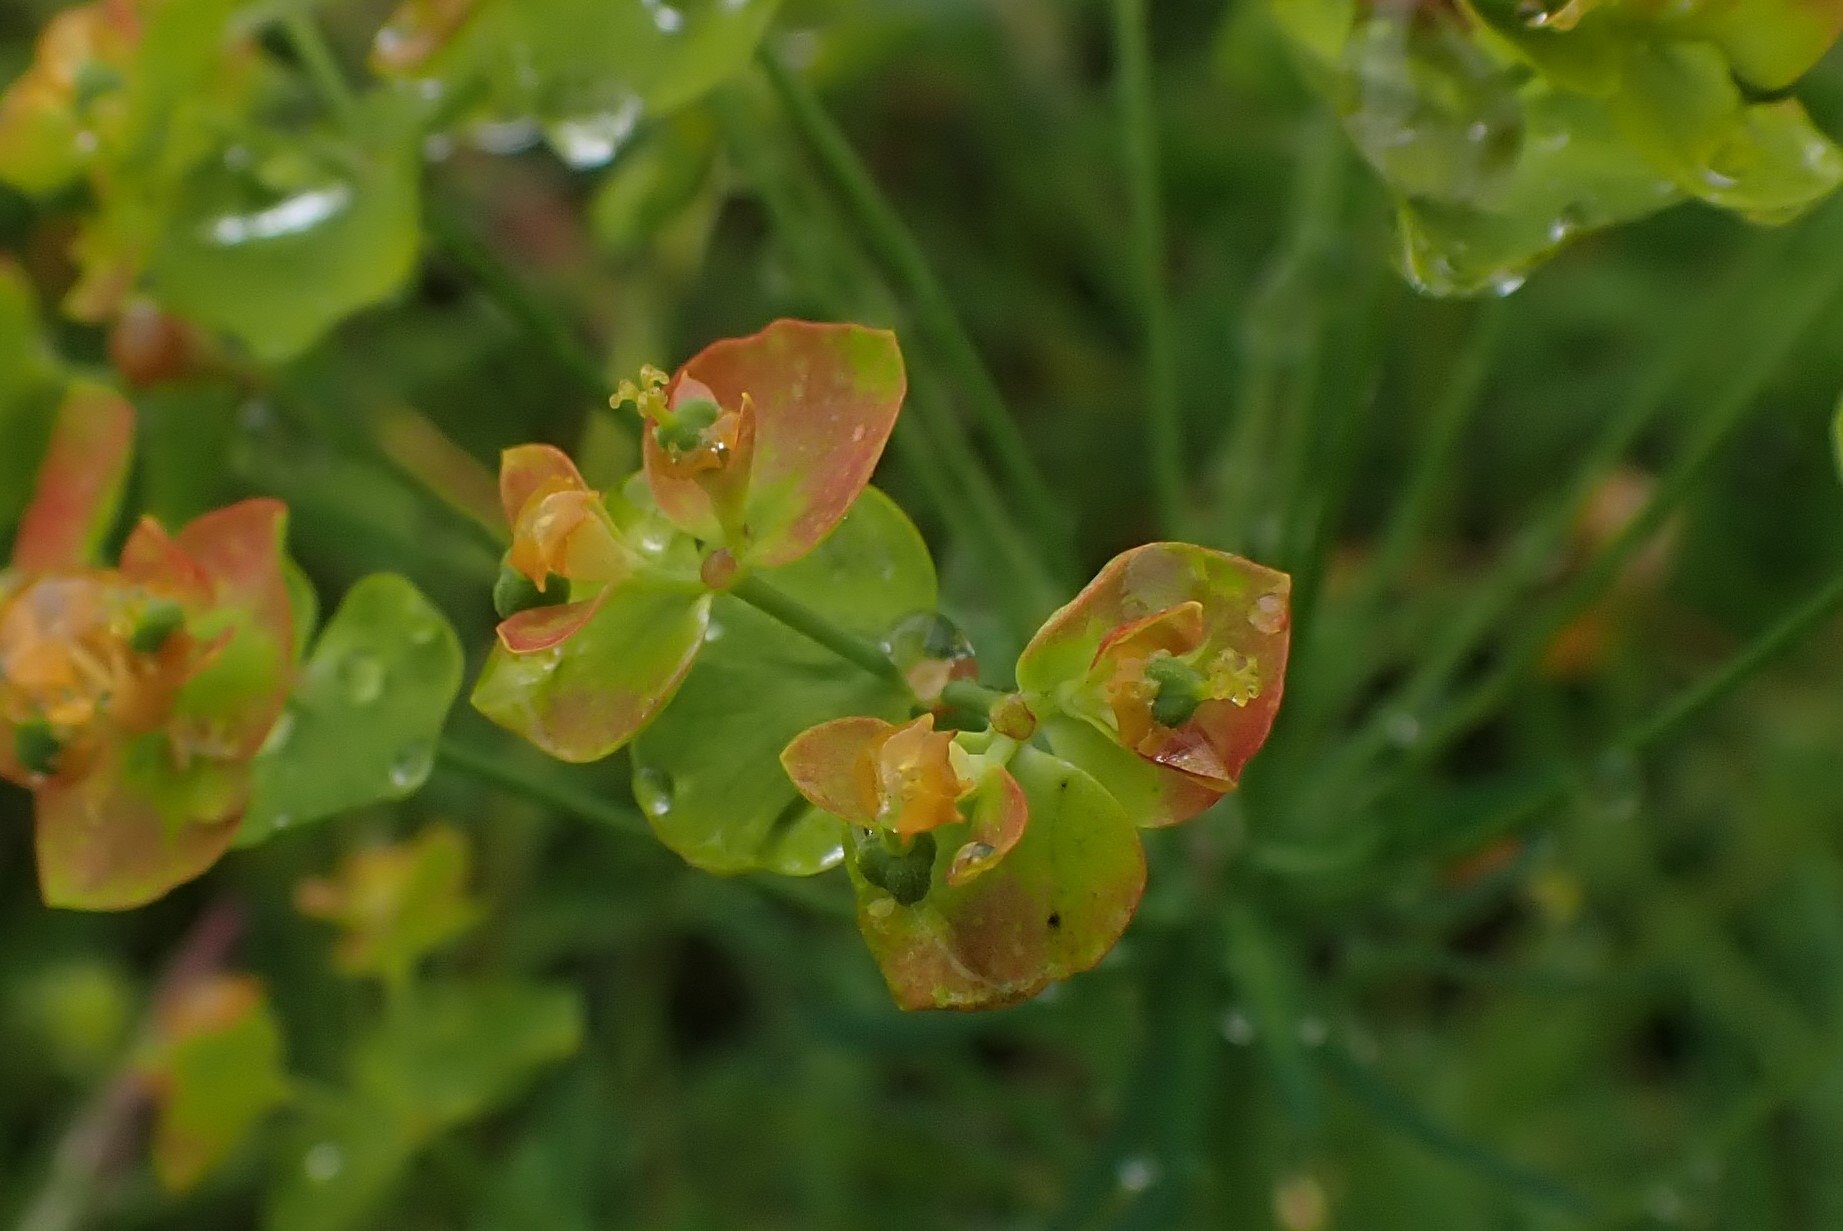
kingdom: Plantae
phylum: Tracheophyta
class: Magnoliopsida
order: Malpighiales
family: Euphorbiaceae
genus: Euphorbia
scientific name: Euphorbia cyparissias
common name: Cypres-vortemælk
